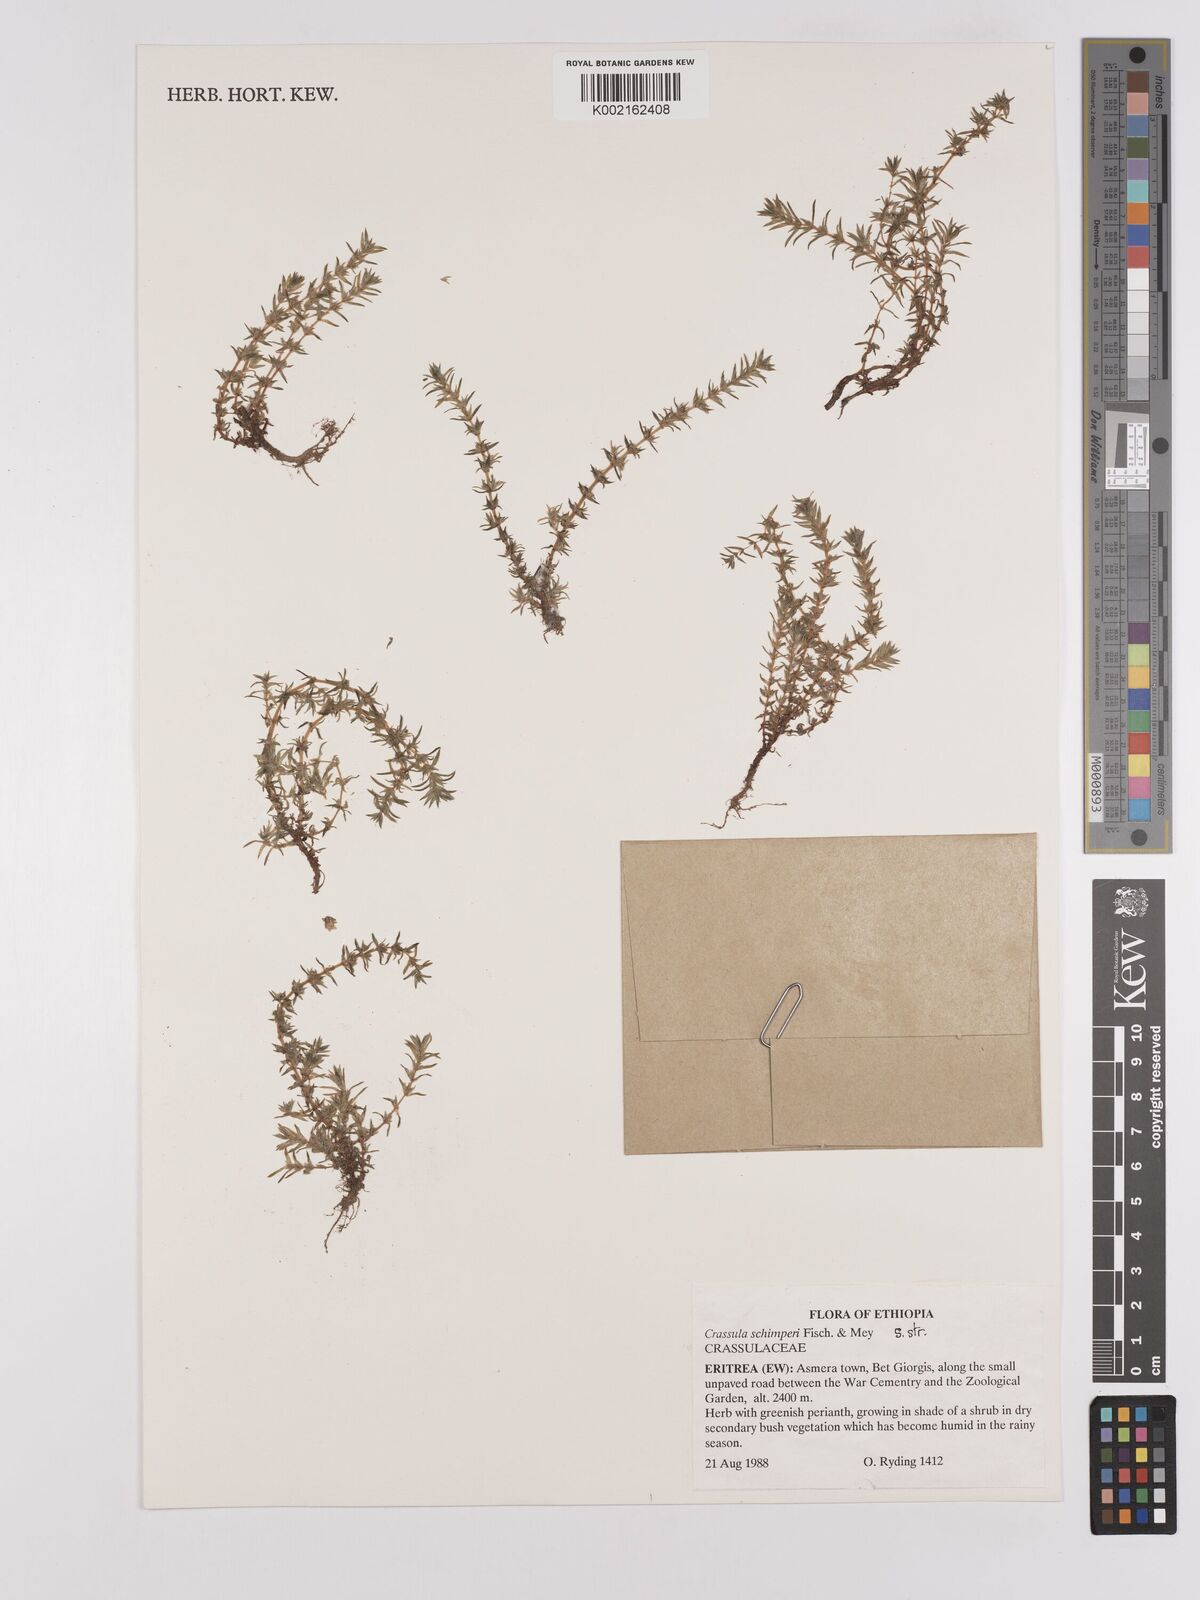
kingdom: Plantae
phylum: Tracheophyta
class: Magnoliopsida
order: Saxifragales
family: Crassulaceae
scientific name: Crassulaceae
